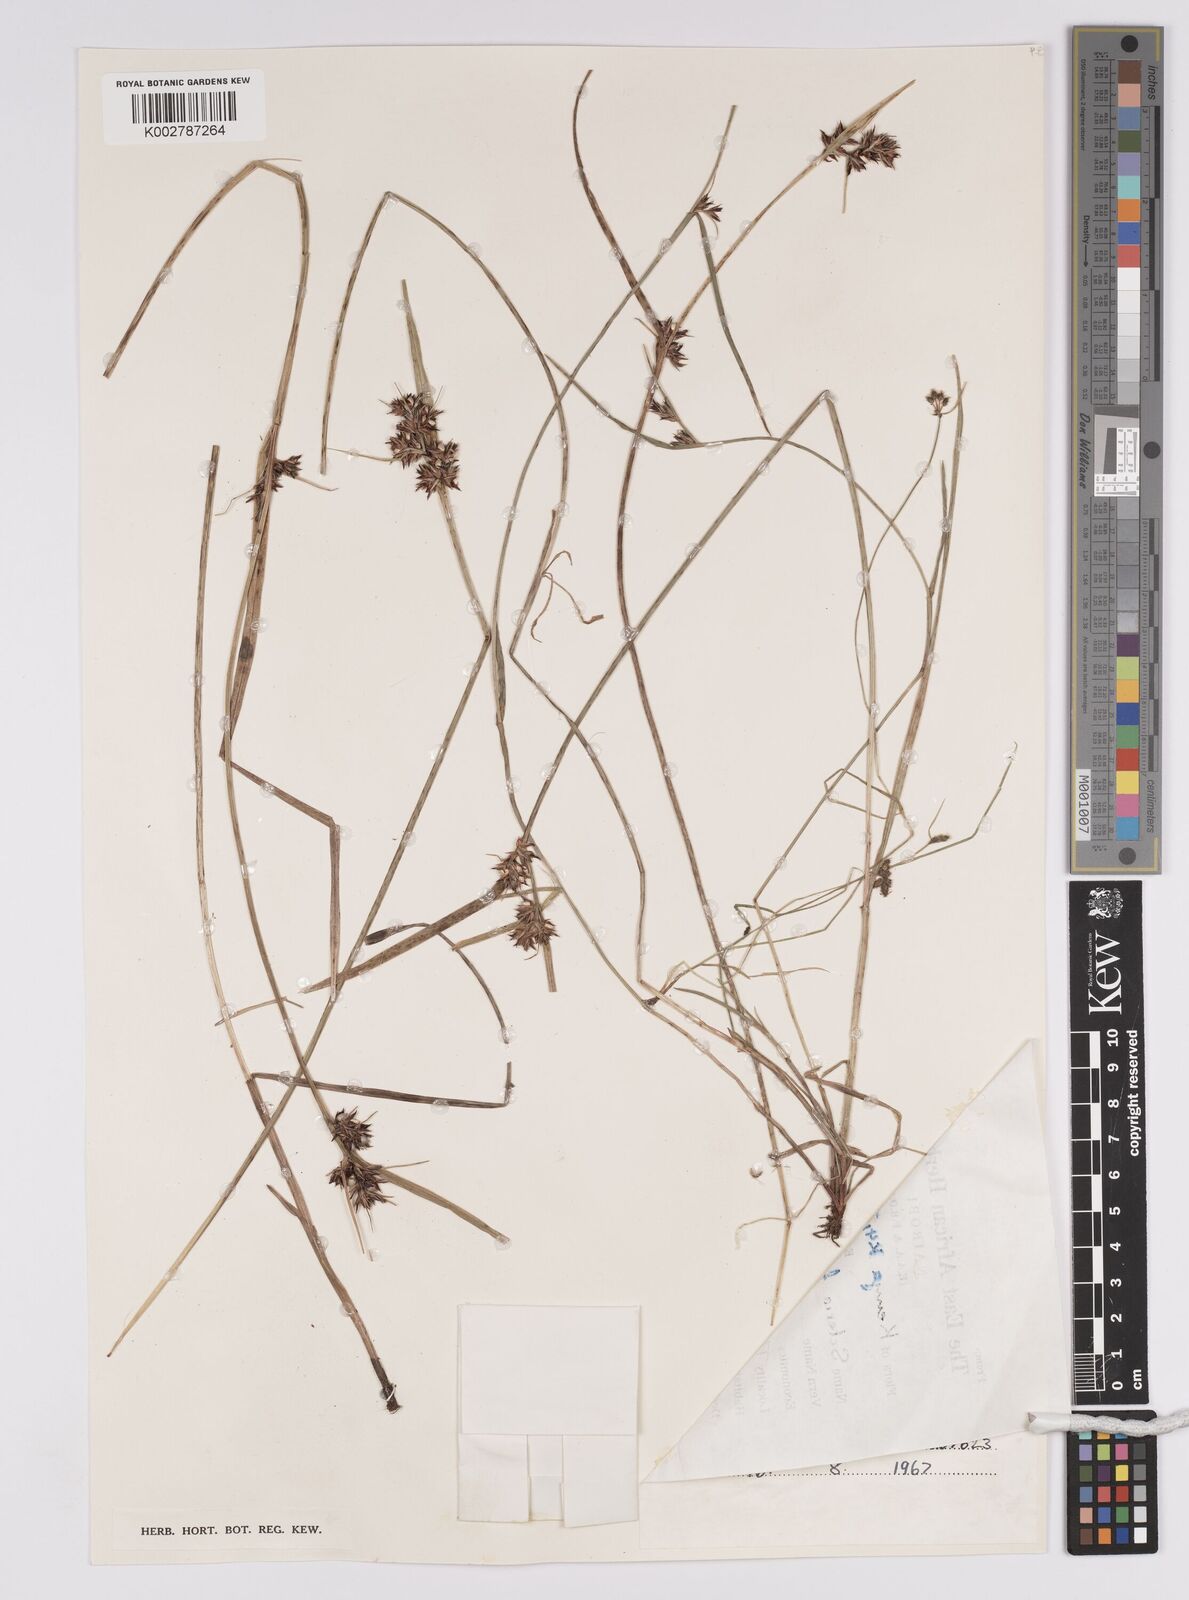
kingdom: Plantae
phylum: Tracheophyta
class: Liliopsida
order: Poales
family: Cyperaceae
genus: Scleria
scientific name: Scleria foliosa
